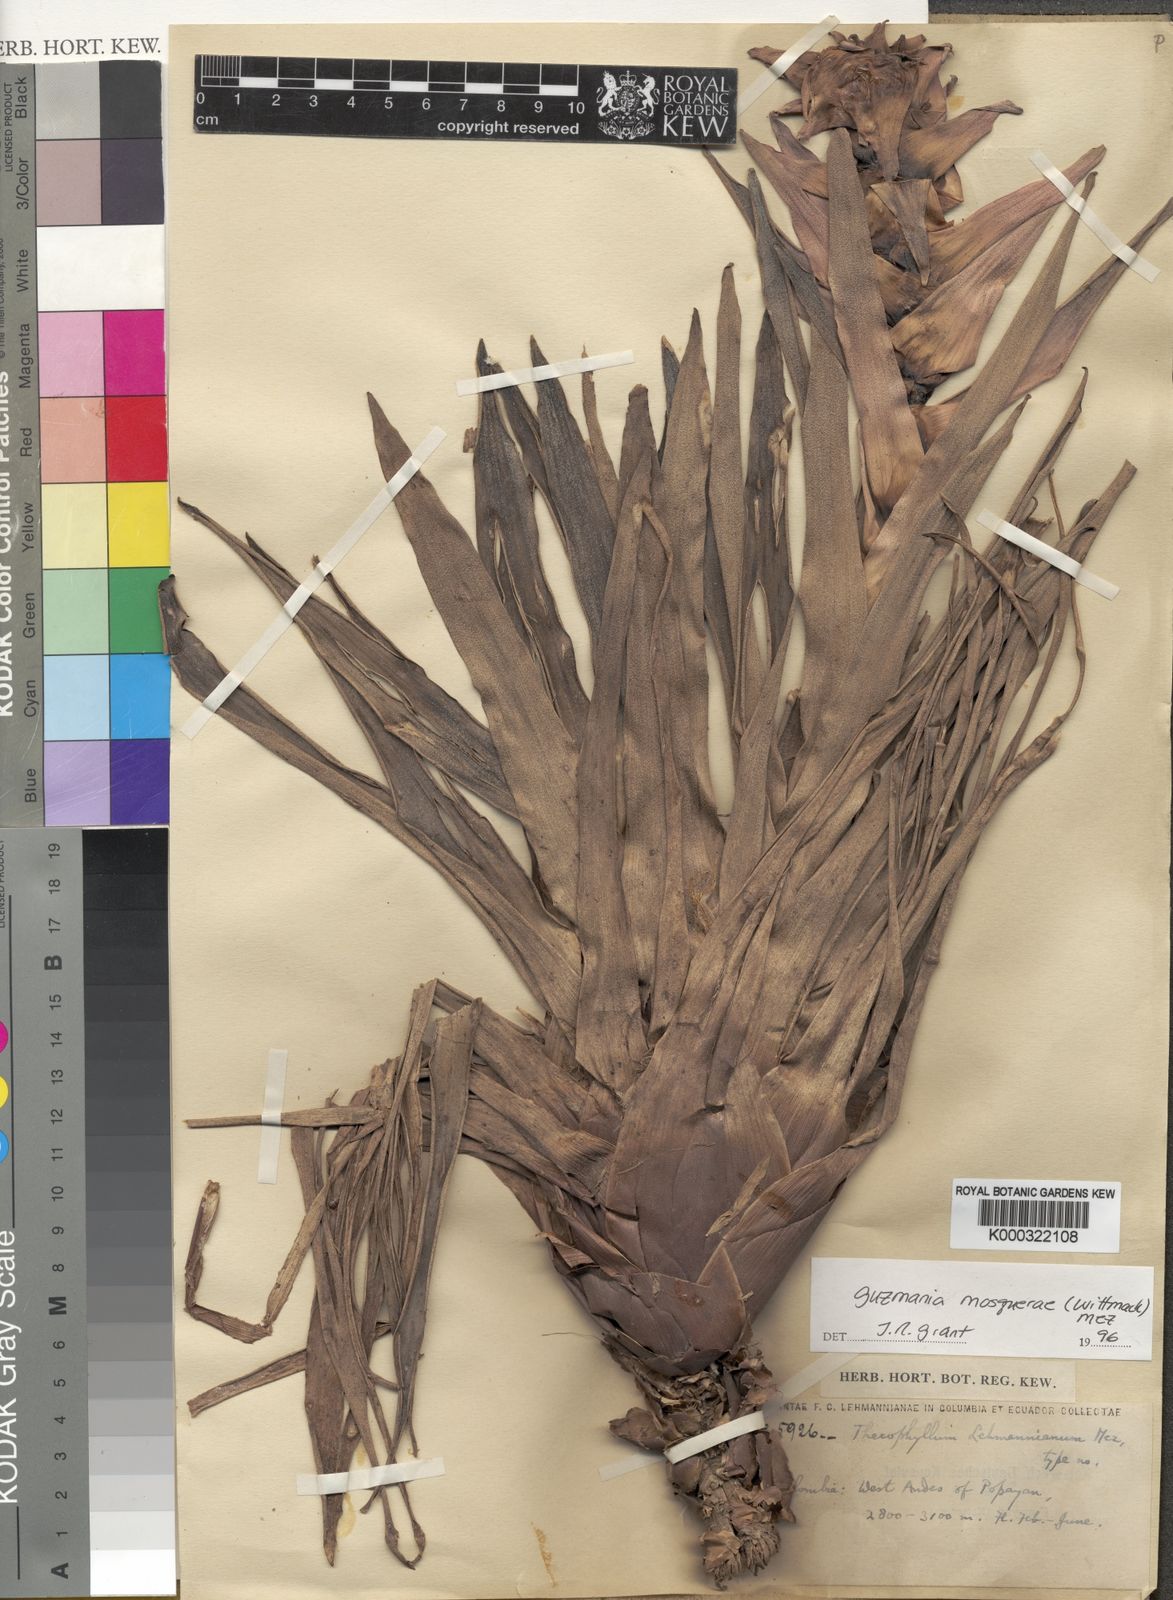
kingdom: Plantae
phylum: Tracheophyta
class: Liliopsida
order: Poales
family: Bromeliaceae
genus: Guzmania
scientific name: Guzmania mosquerae
